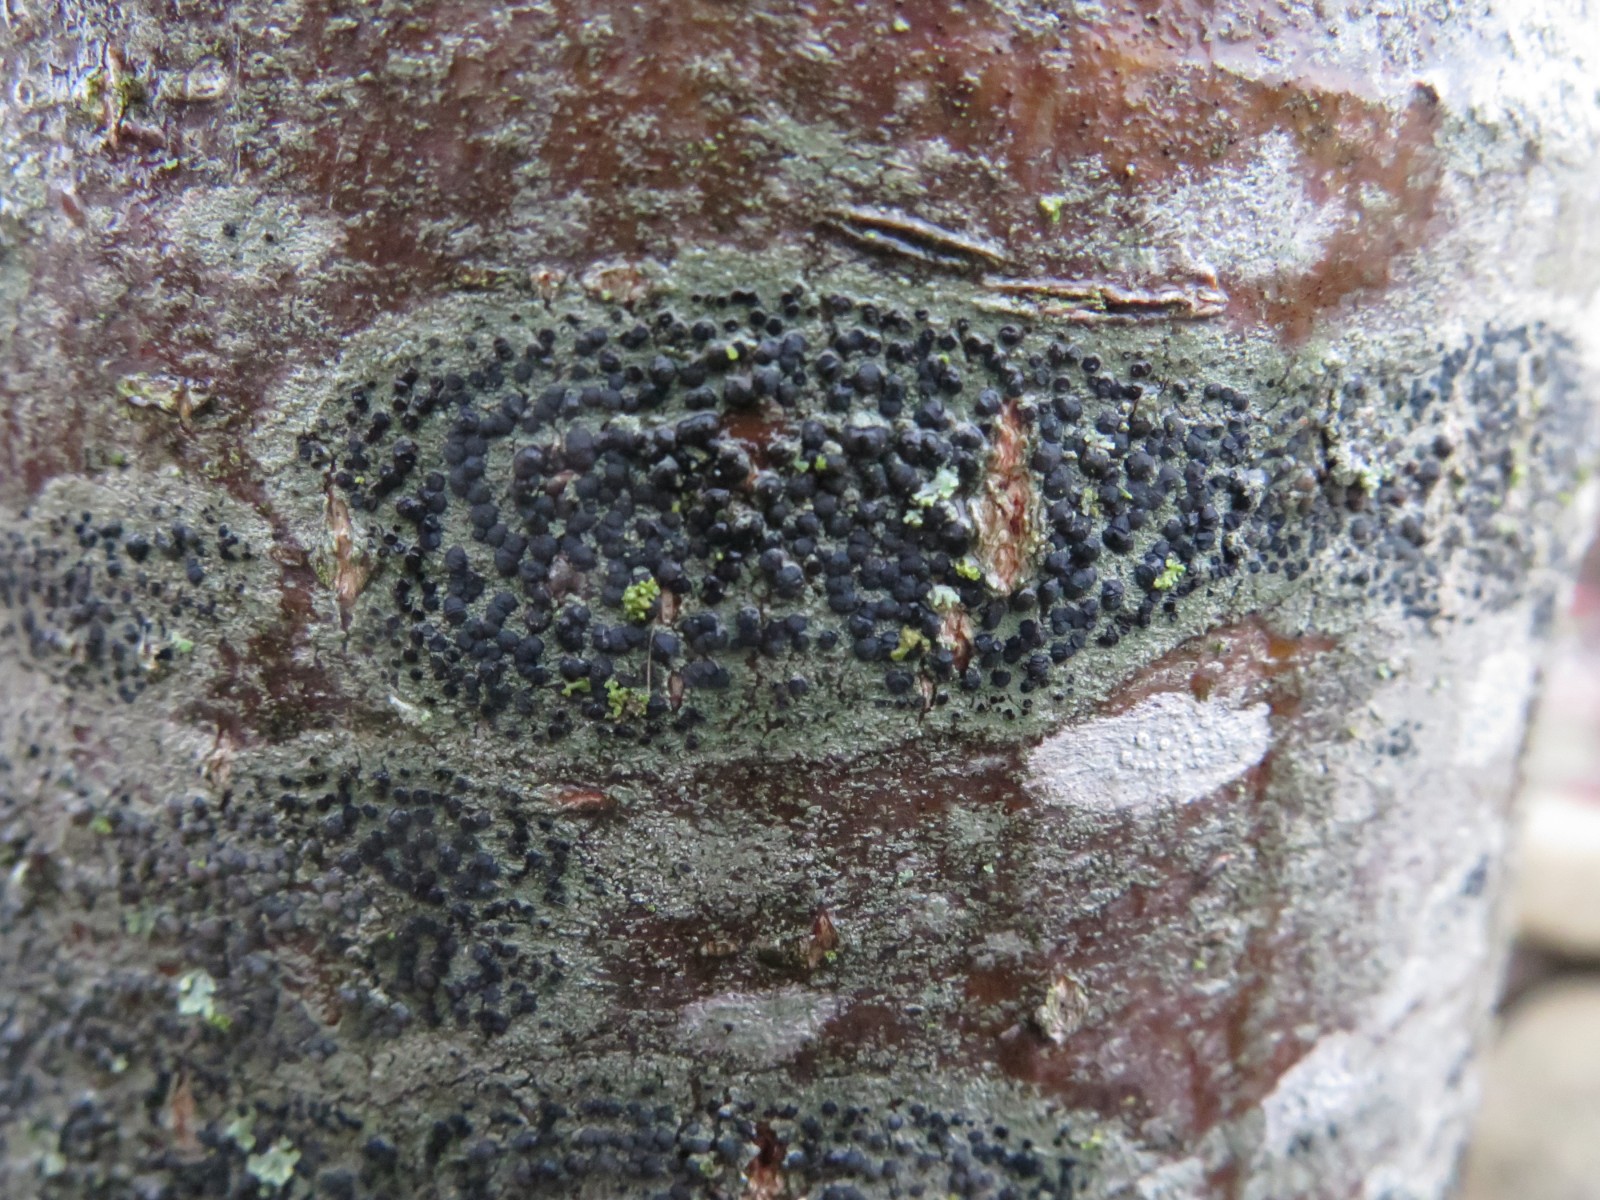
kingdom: Fungi
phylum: Ascomycota
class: Lecanoromycetes
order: Lecanorales
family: Lecanoraceae
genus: Lecidella
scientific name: Lecidella elaeochroma
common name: grågrøn skivelav
